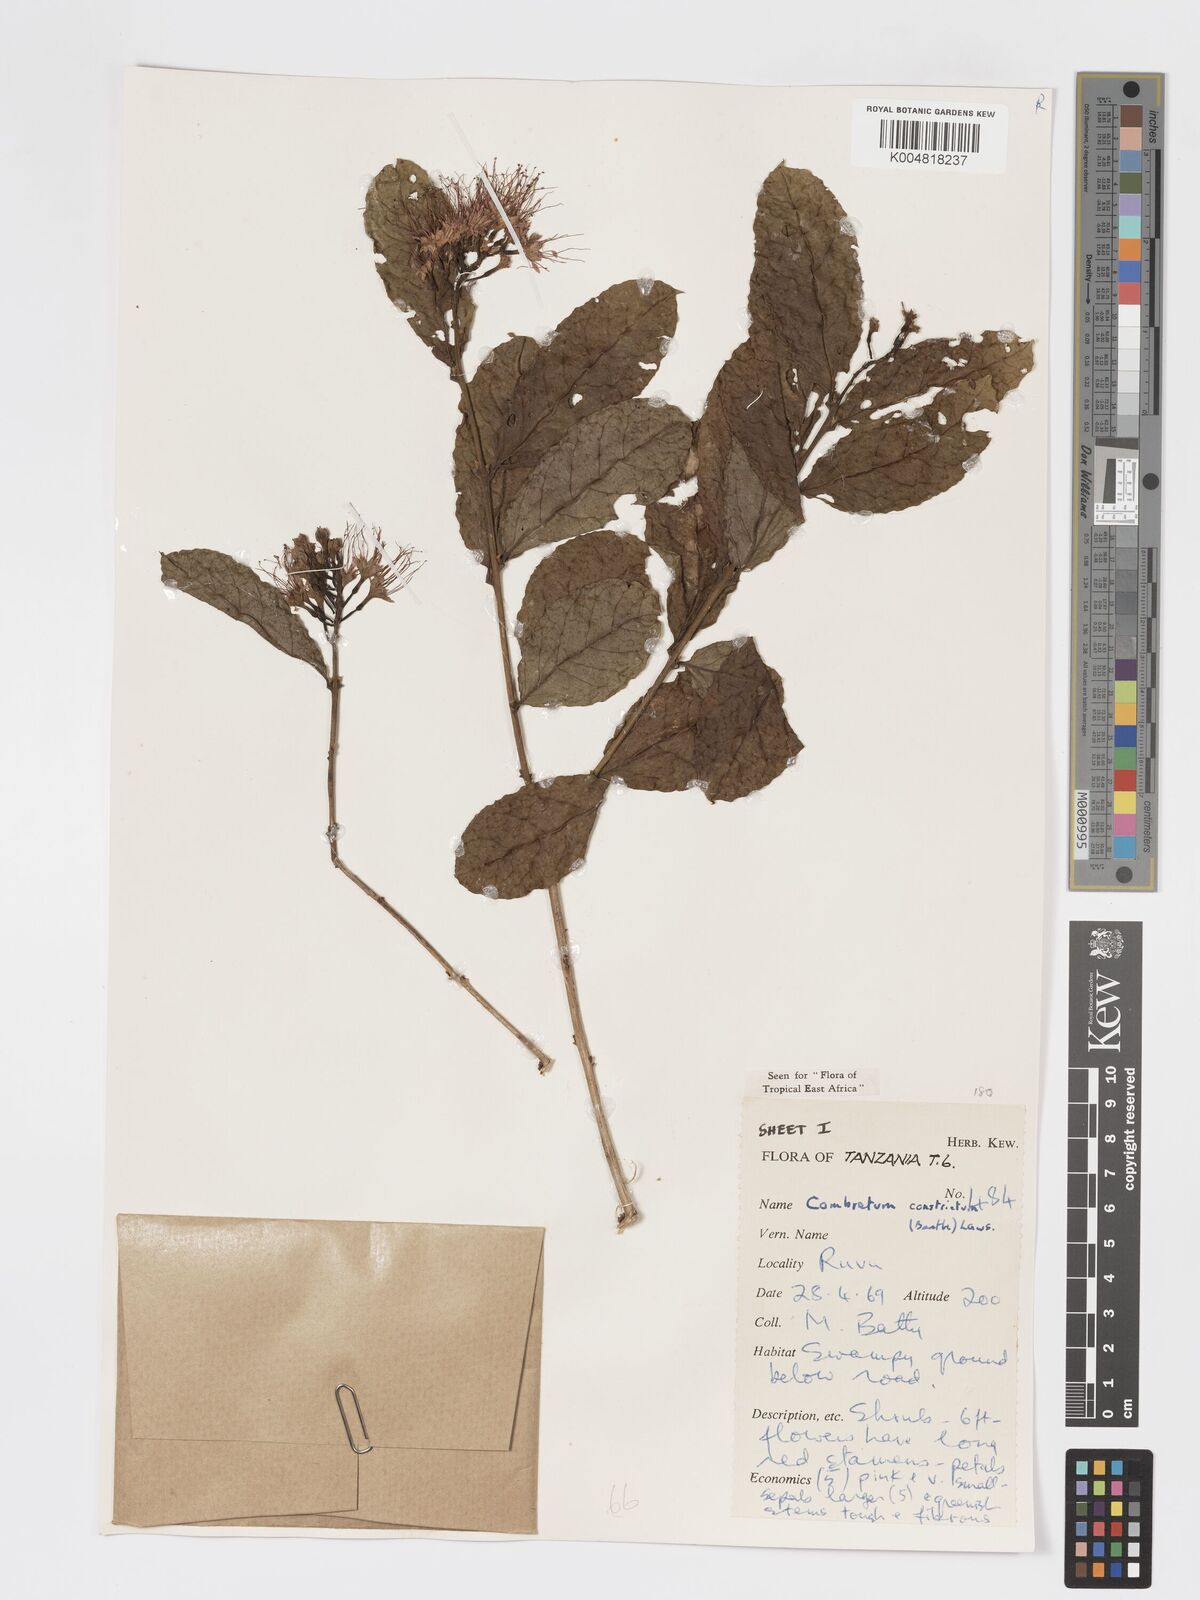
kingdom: Plantae
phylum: Tracheophyta
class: Magnoliopsida
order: Myrtales
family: Combretaceae
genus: Combretum
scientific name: Combretum constrictum
